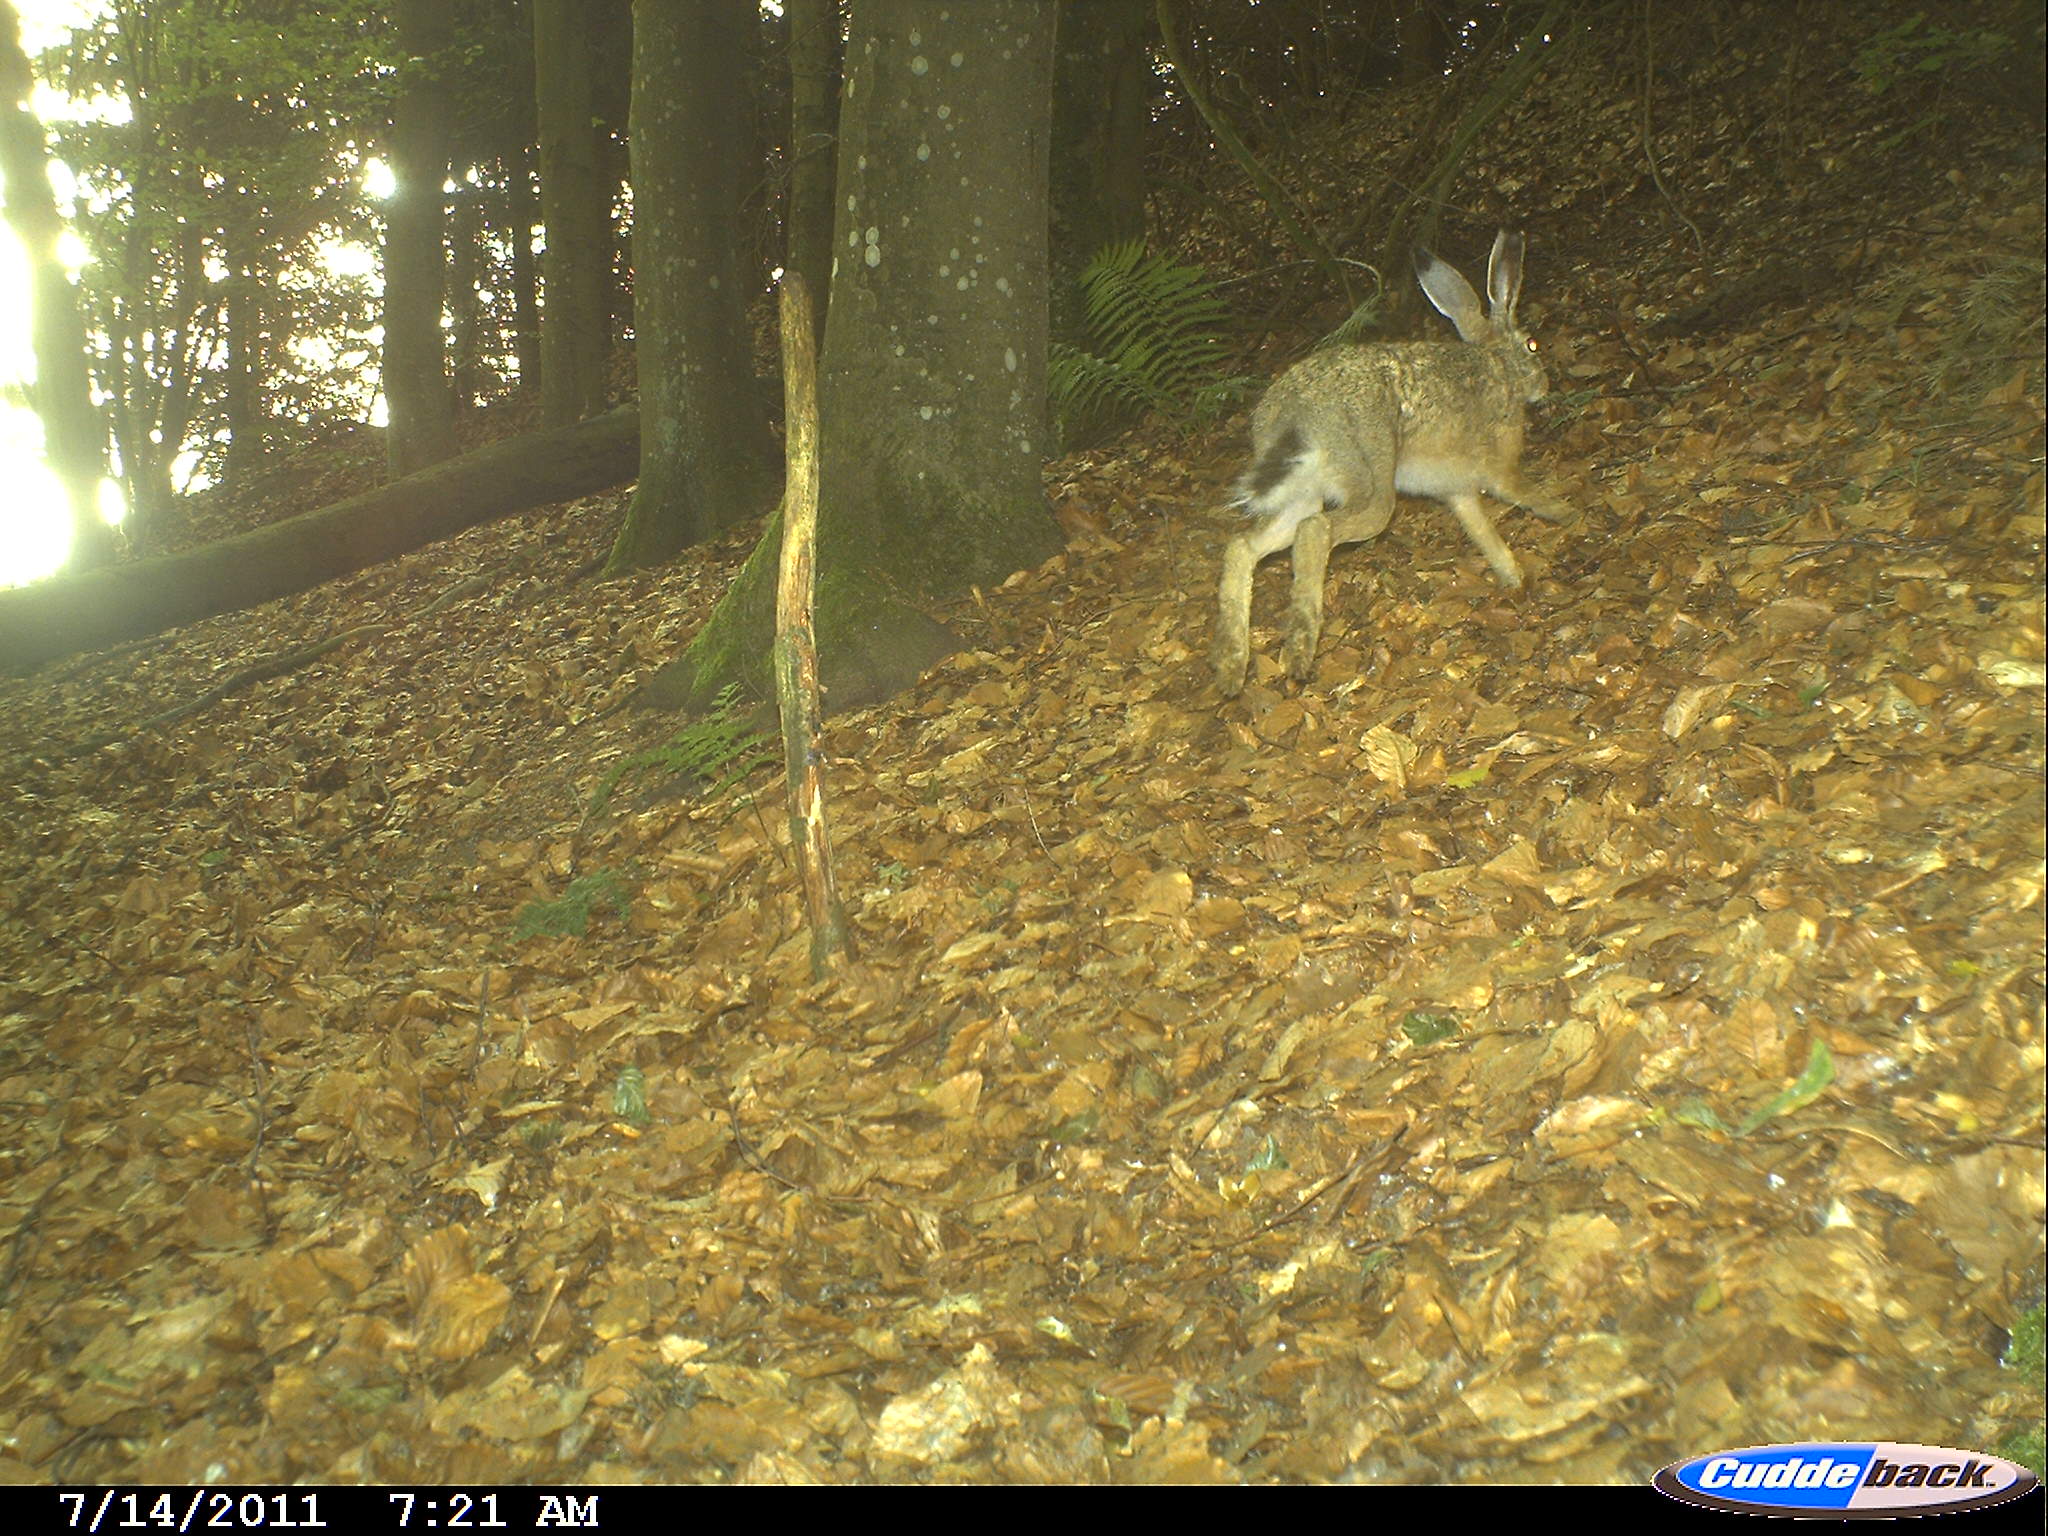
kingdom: Animalia
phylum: Chordata
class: Mammalia
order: Lagomorpha
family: Leporidae
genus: Lepus
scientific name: Lepus europaeus
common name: European hare
